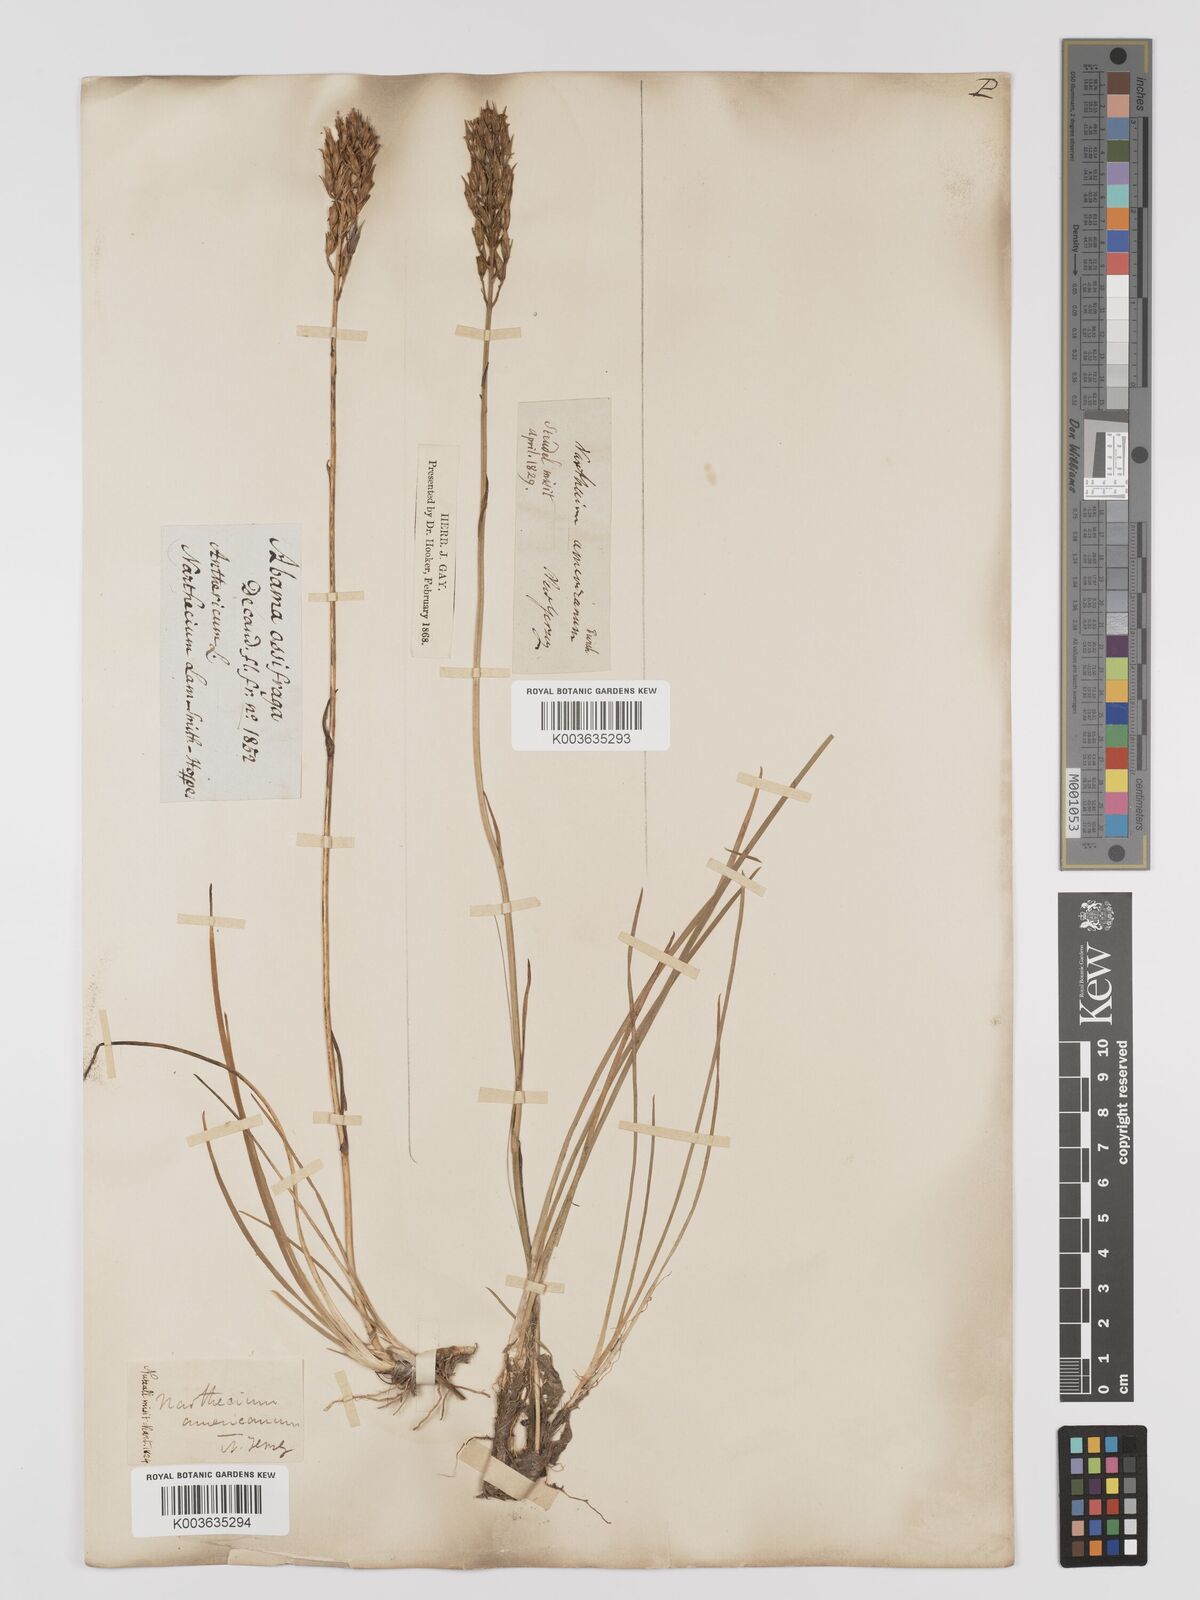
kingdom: Plantae
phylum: Tracheophyta
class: Liliopsida
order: Dioscoreales
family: Nartheciaceae
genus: Narthecium
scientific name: Narthecium americanum
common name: Bog-asphodel
